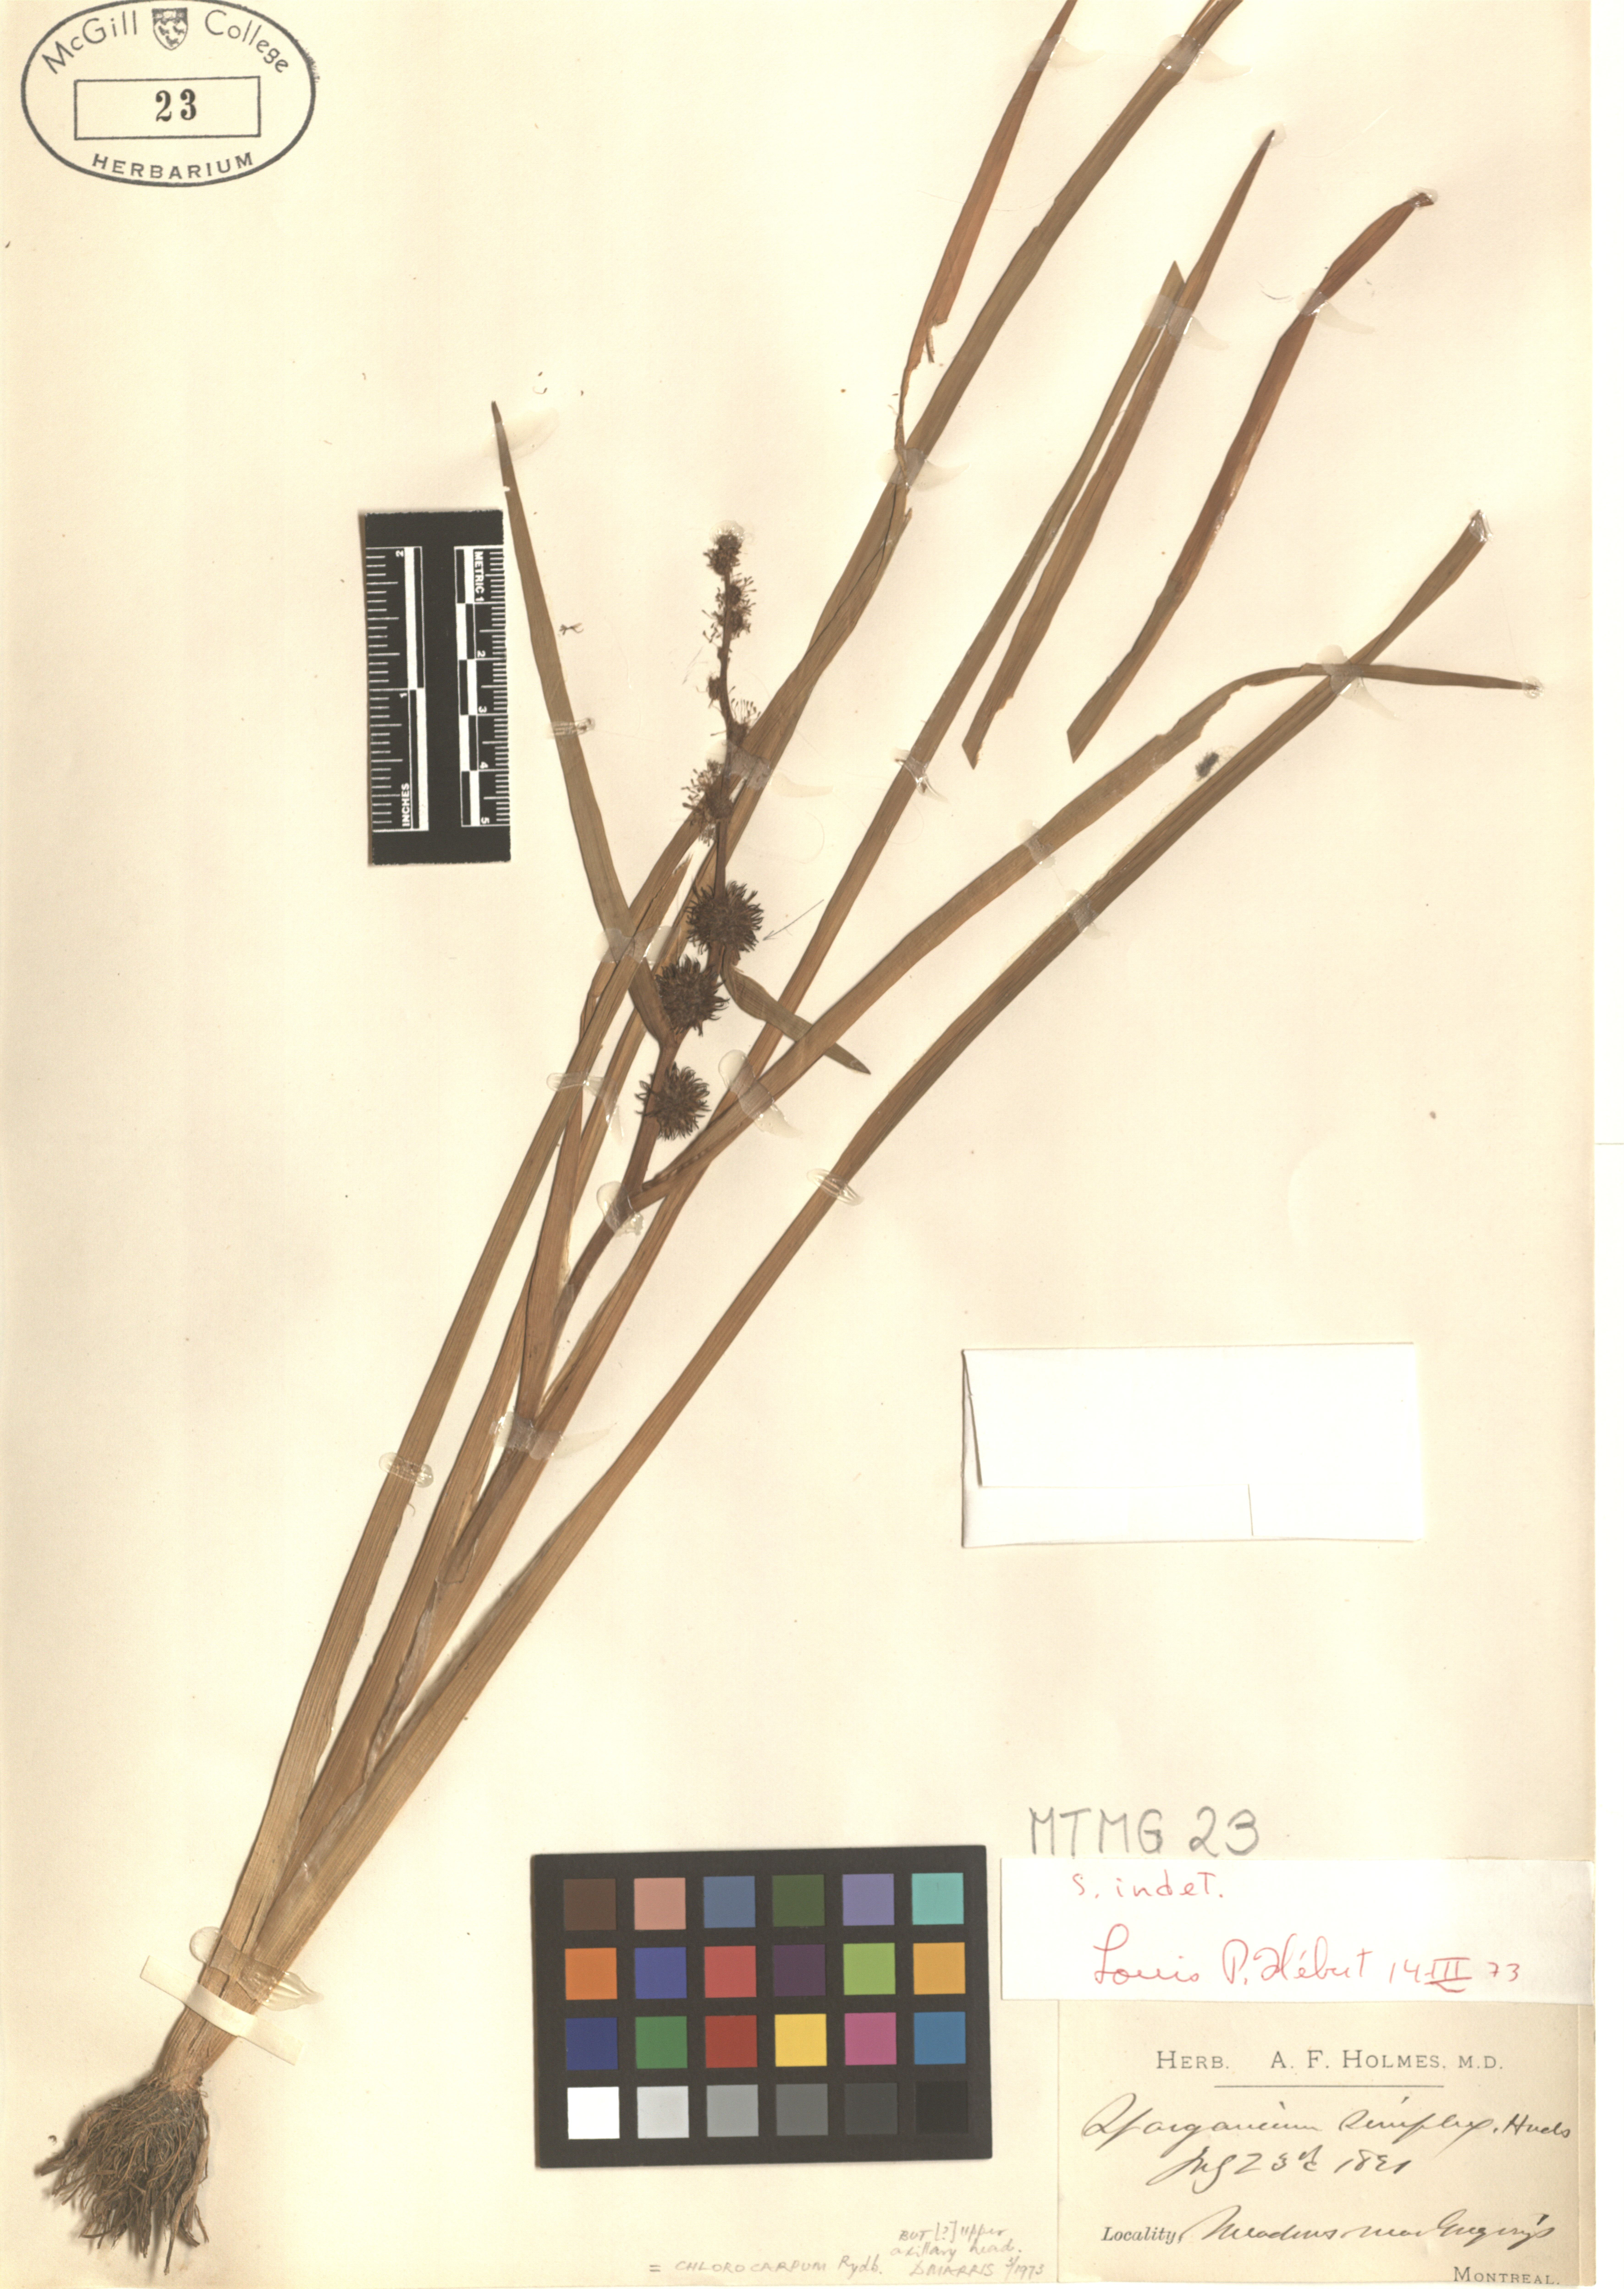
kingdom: Plantae
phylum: Tracheophyta
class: Liliopsida
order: Poales
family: Typhaceae
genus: Sparganium
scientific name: Sparganium emersum
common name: Unbranched bur-reed
